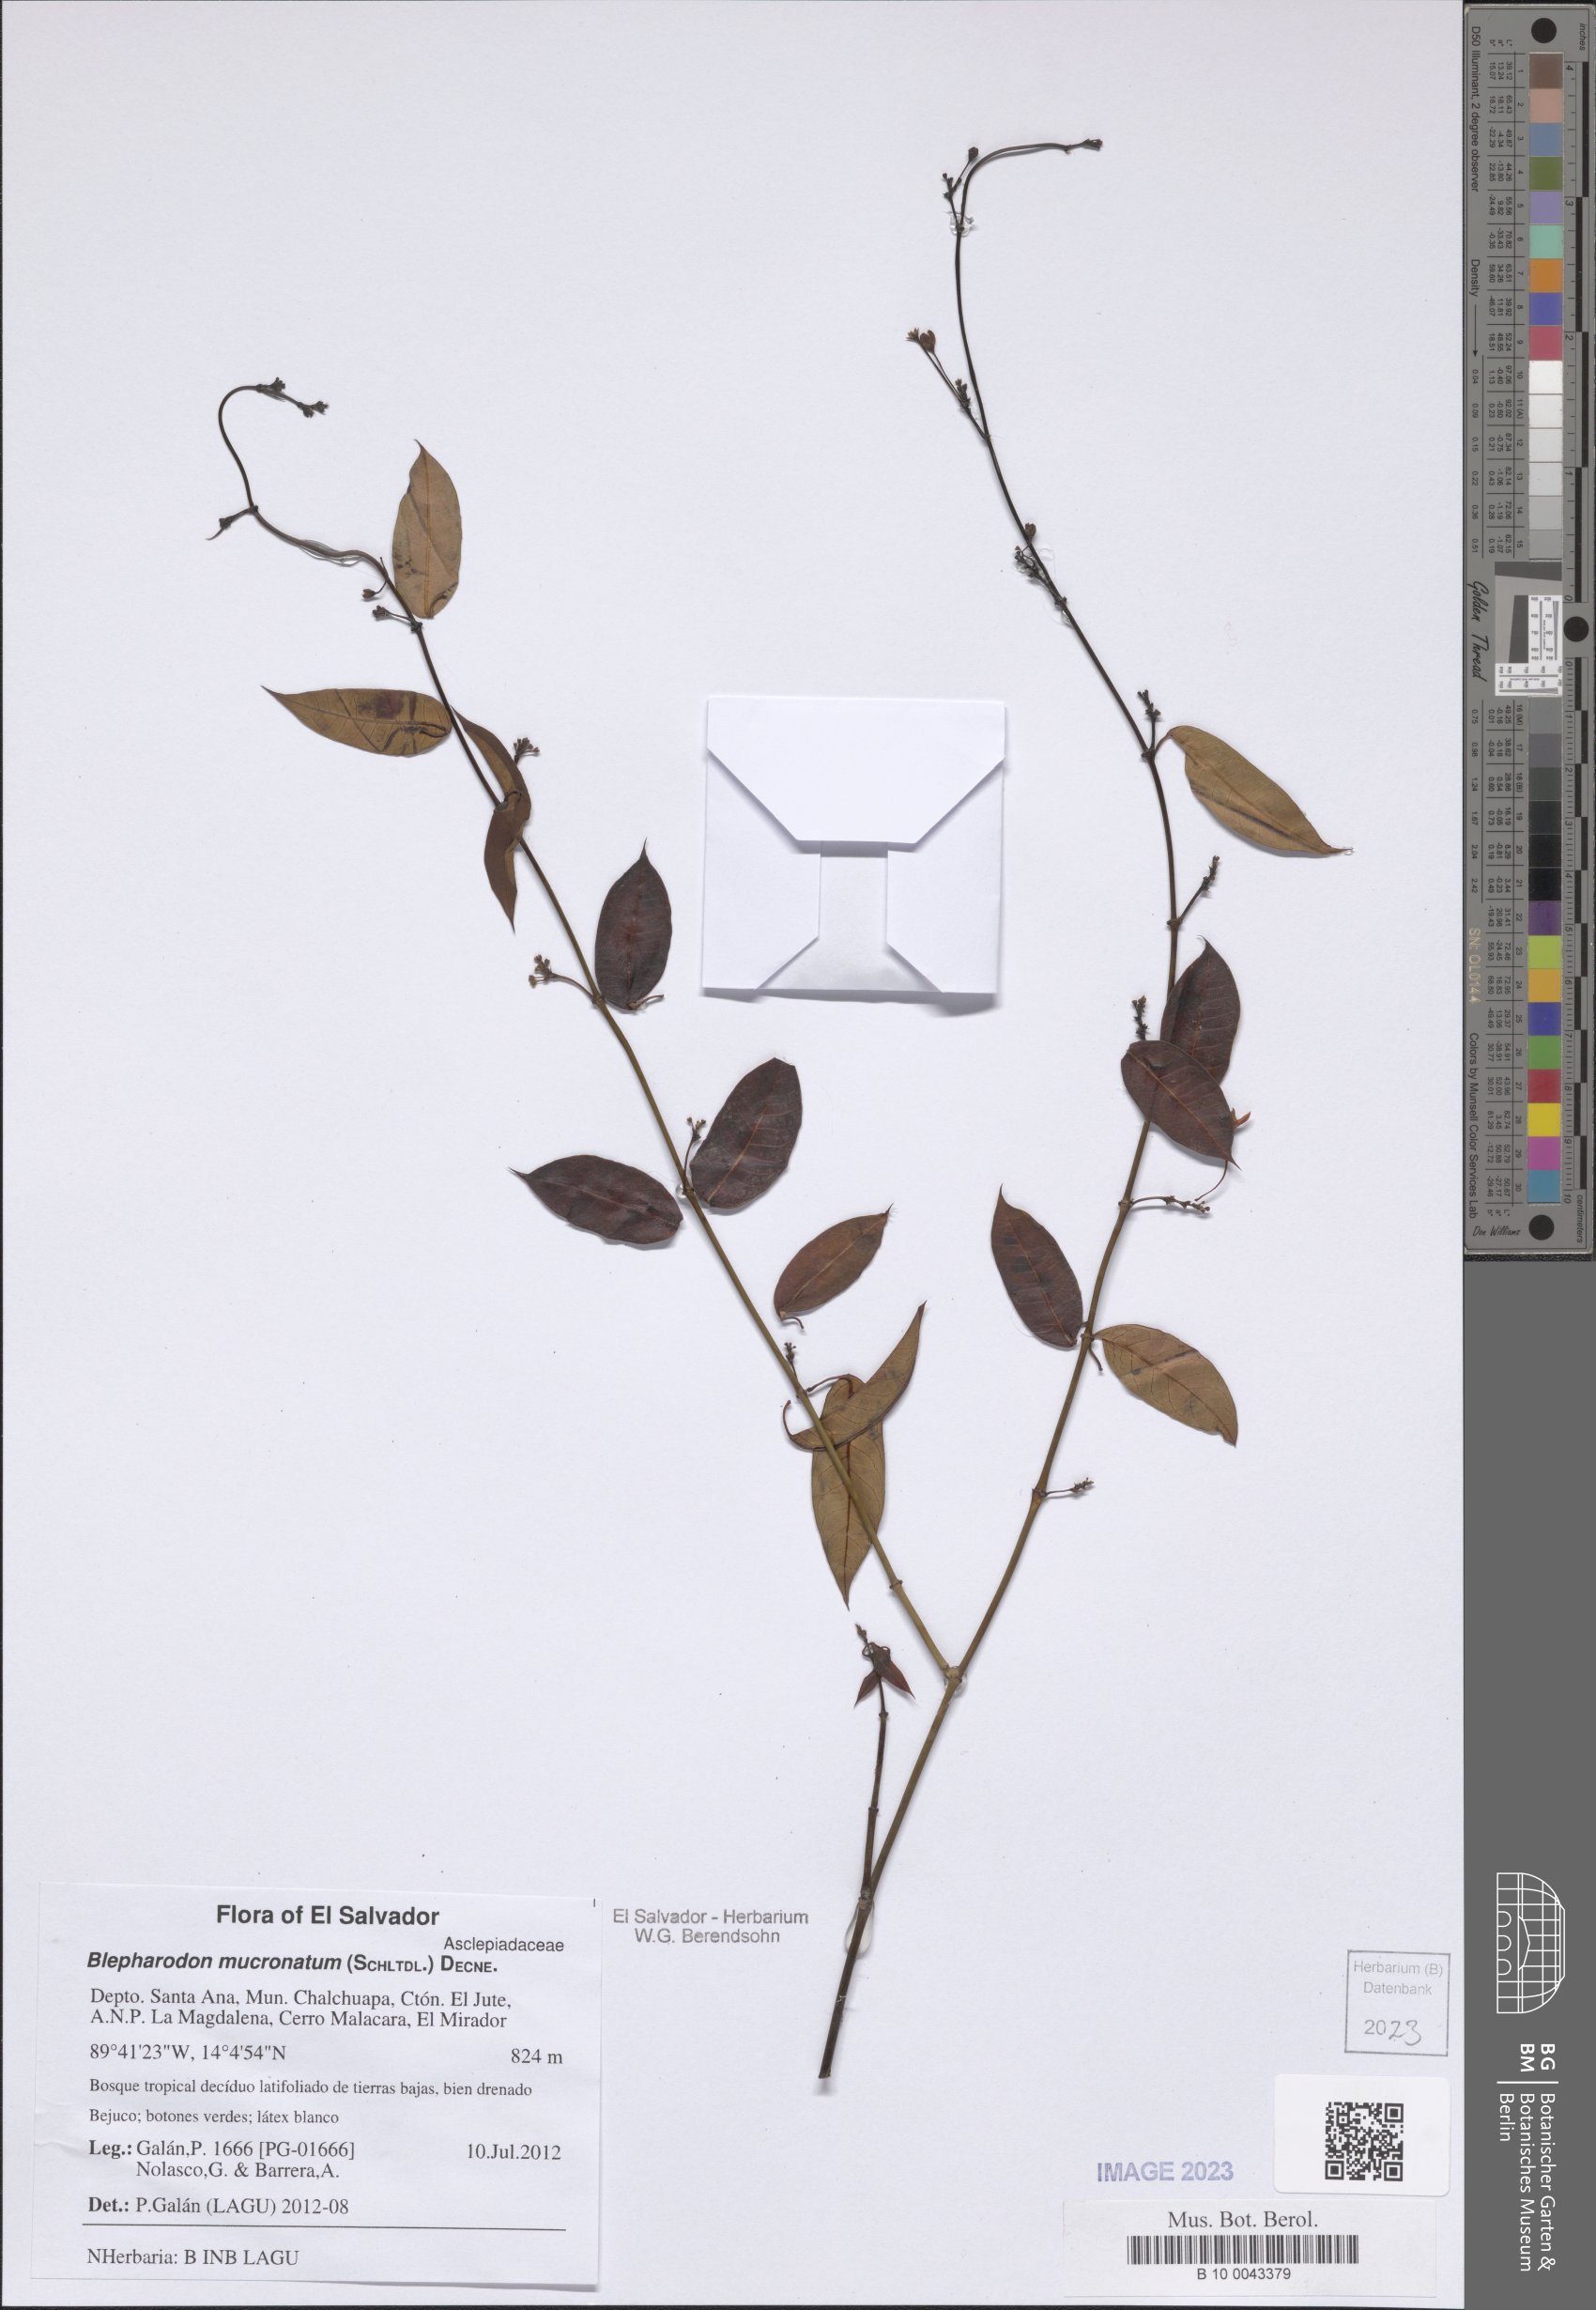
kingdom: Plantae
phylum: Tracheophyta
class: Magnoliopsida
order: Gentianales
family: Apocynaceae
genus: Vailia
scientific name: Vailia anomala
